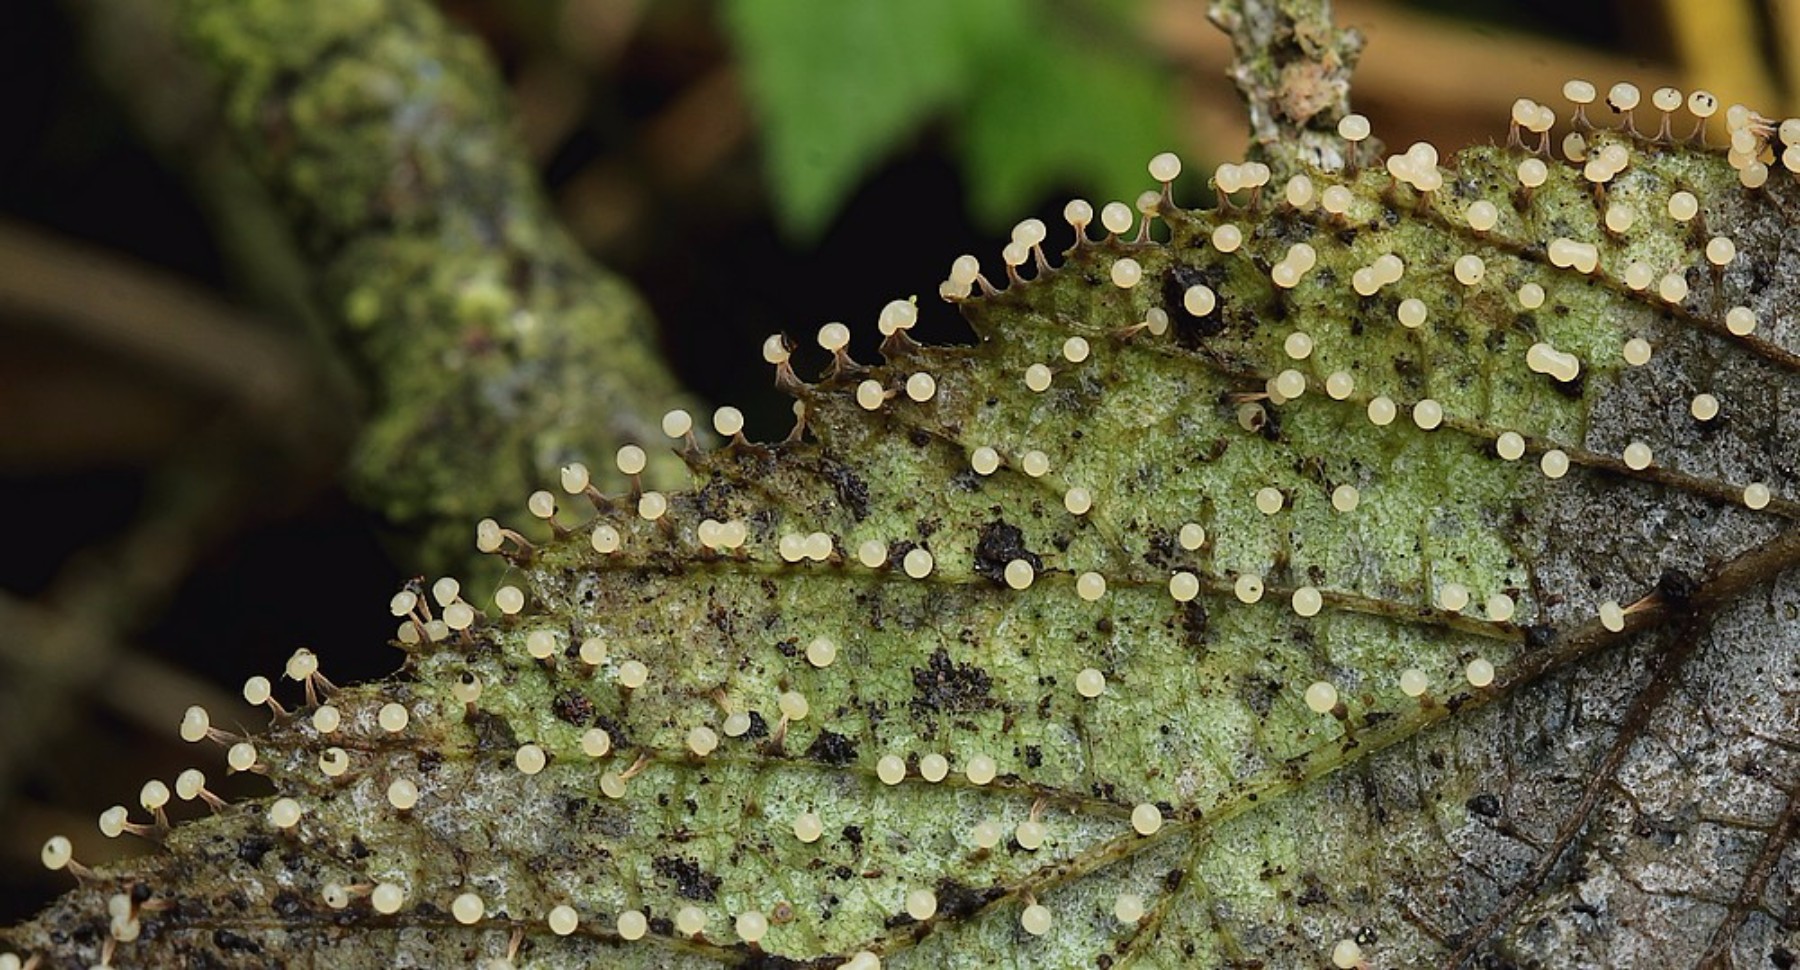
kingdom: Protozoa
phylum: Mycetozoa
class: Myxomycetes
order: Physarales
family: Physaraceae
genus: Physarum
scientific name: Physarum
